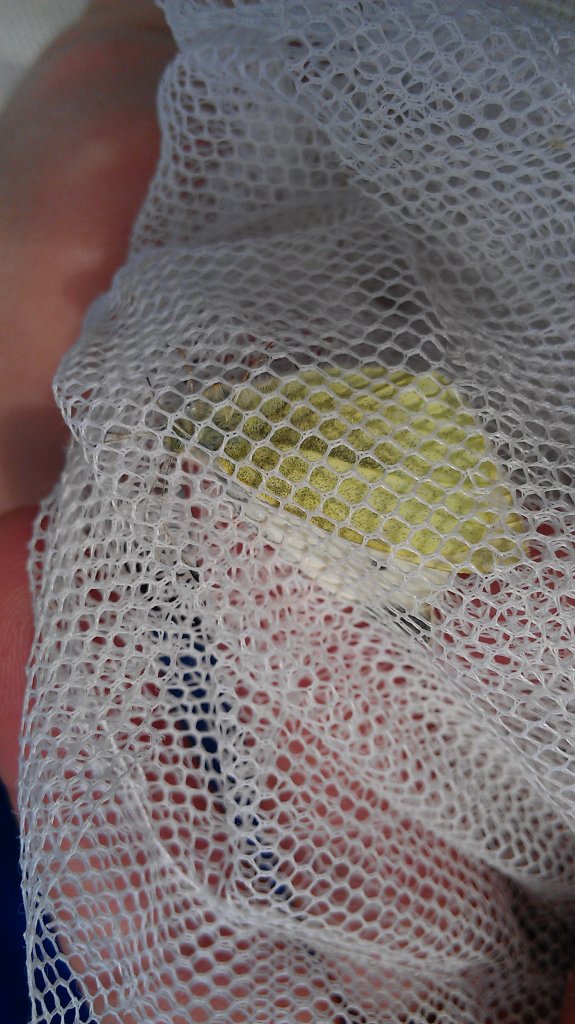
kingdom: Animalia
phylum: Arthropoda
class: Insecta
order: Lepidoptera
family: Pieridae
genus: Pieris
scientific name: Pieris rapae
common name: Cabbage White
